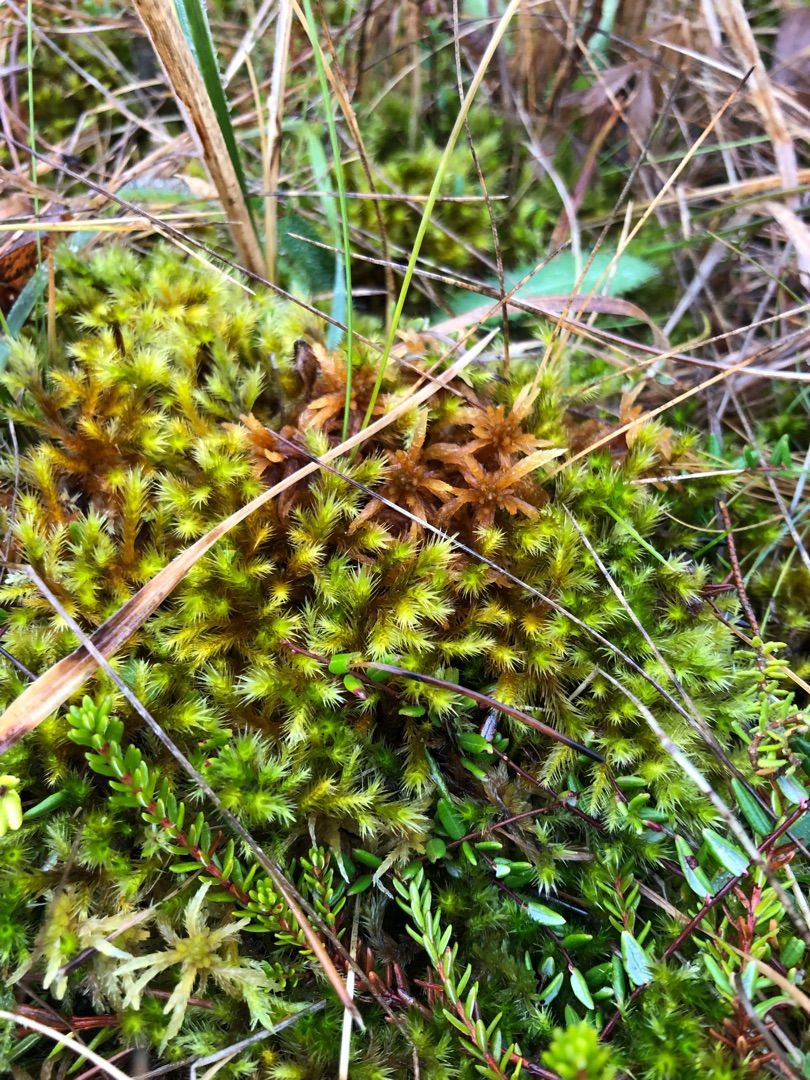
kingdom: Plantae
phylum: Bryophyta
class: Bryopsida
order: Hypnales
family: Amblystegiaceae
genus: Tomentypnum
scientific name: Tomentypnum nitens
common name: Glinsende kærmos
